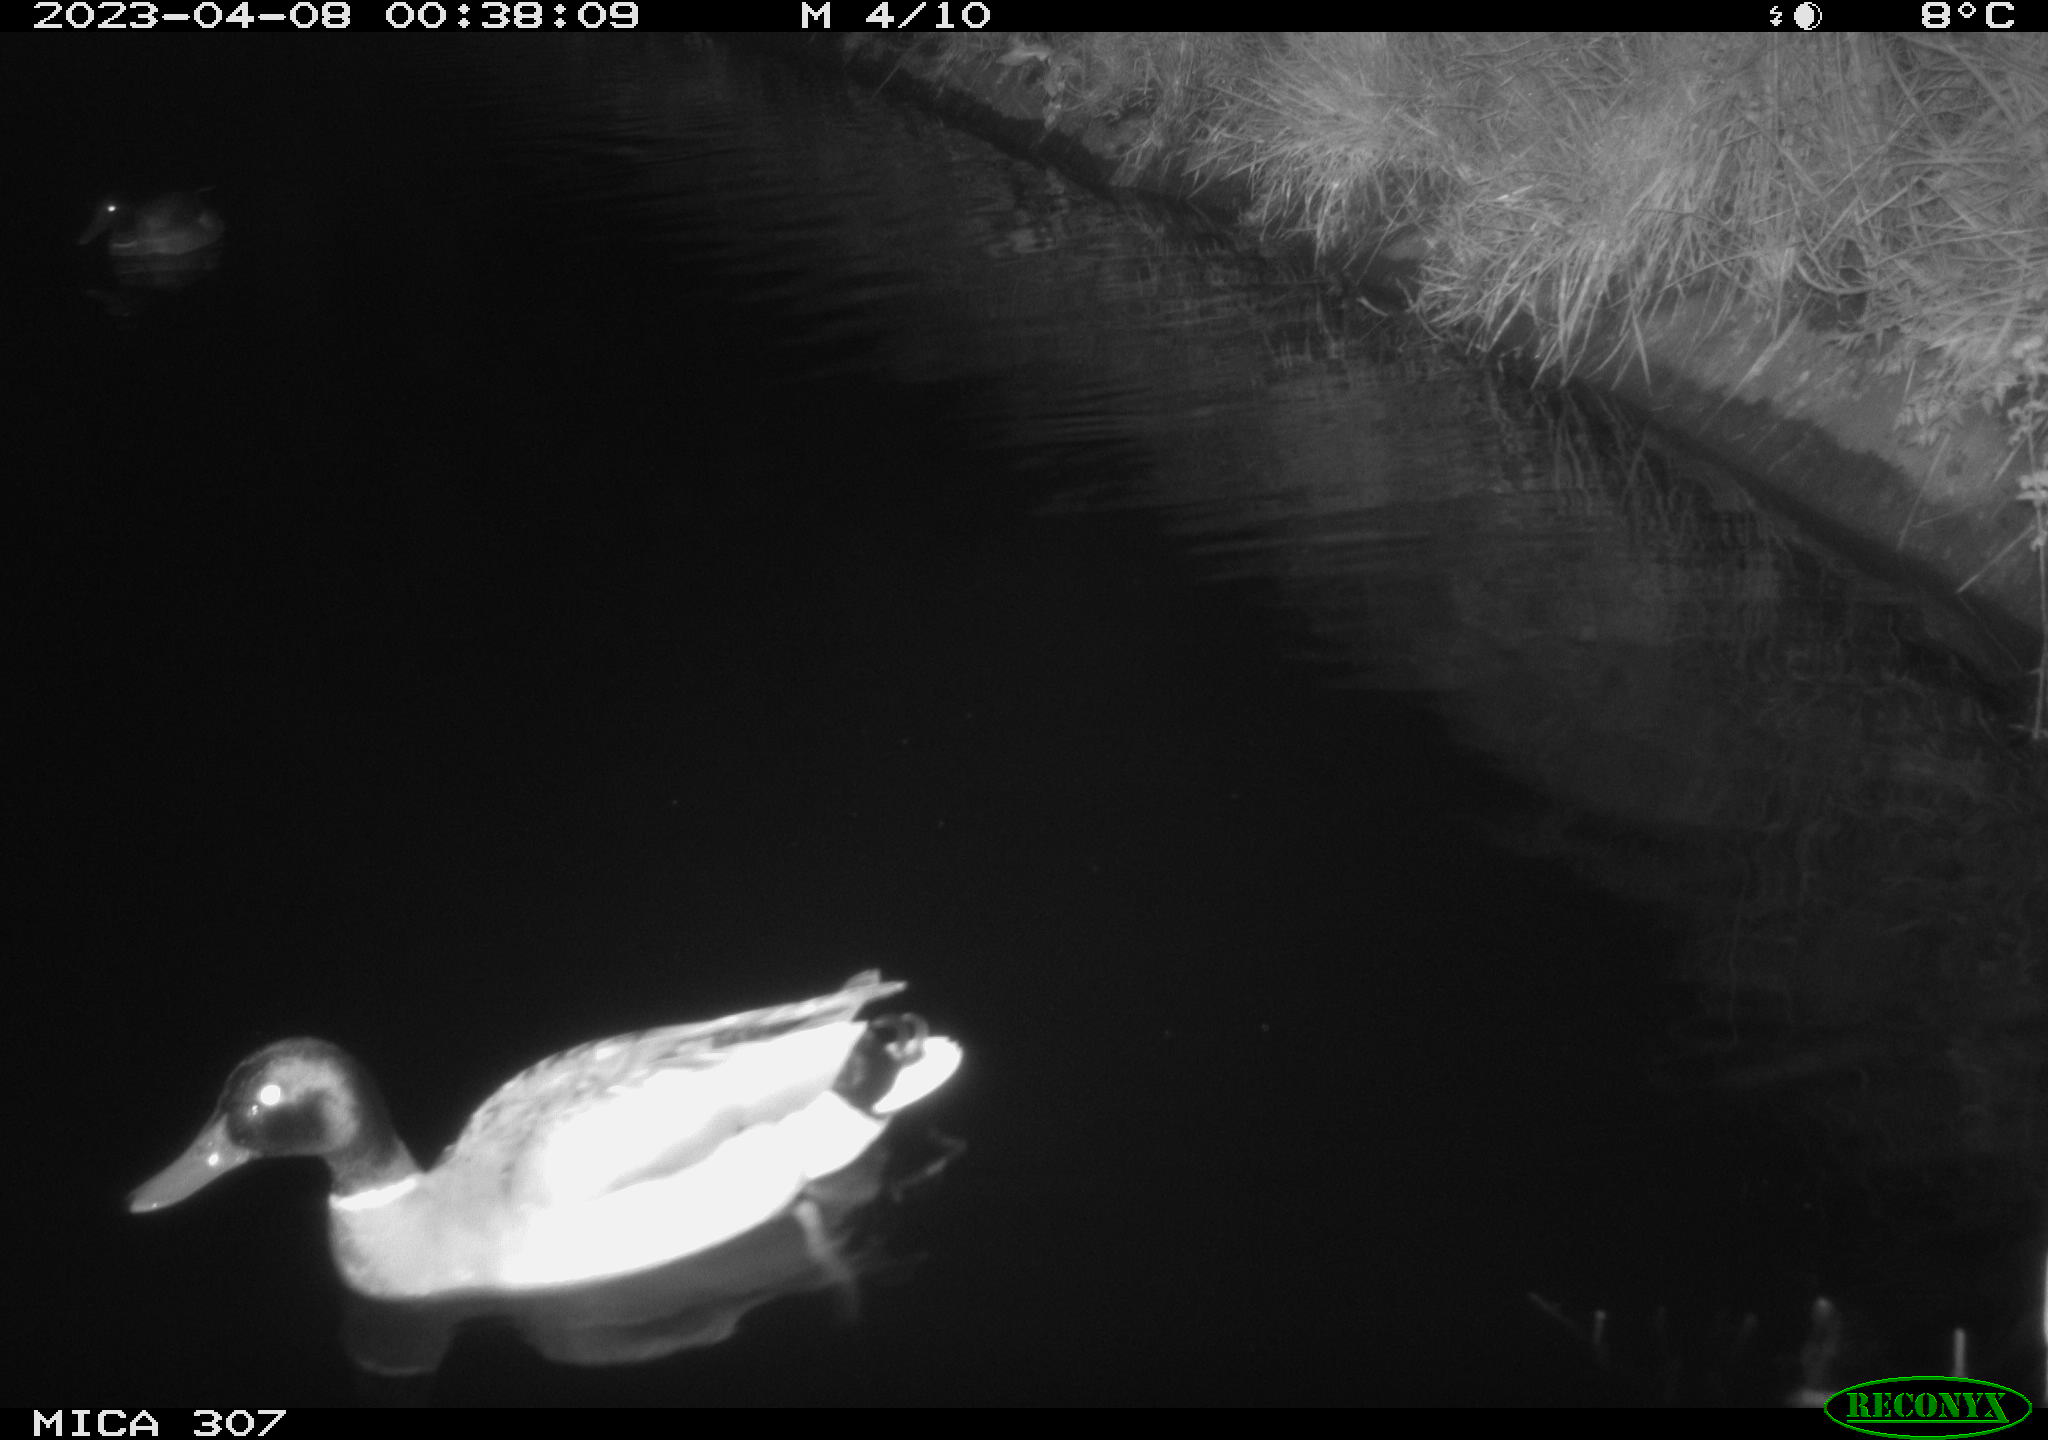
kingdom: Animalia
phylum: Chordata
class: Aves
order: Anseriformes
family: Anatidae
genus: Anas
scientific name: Anas
